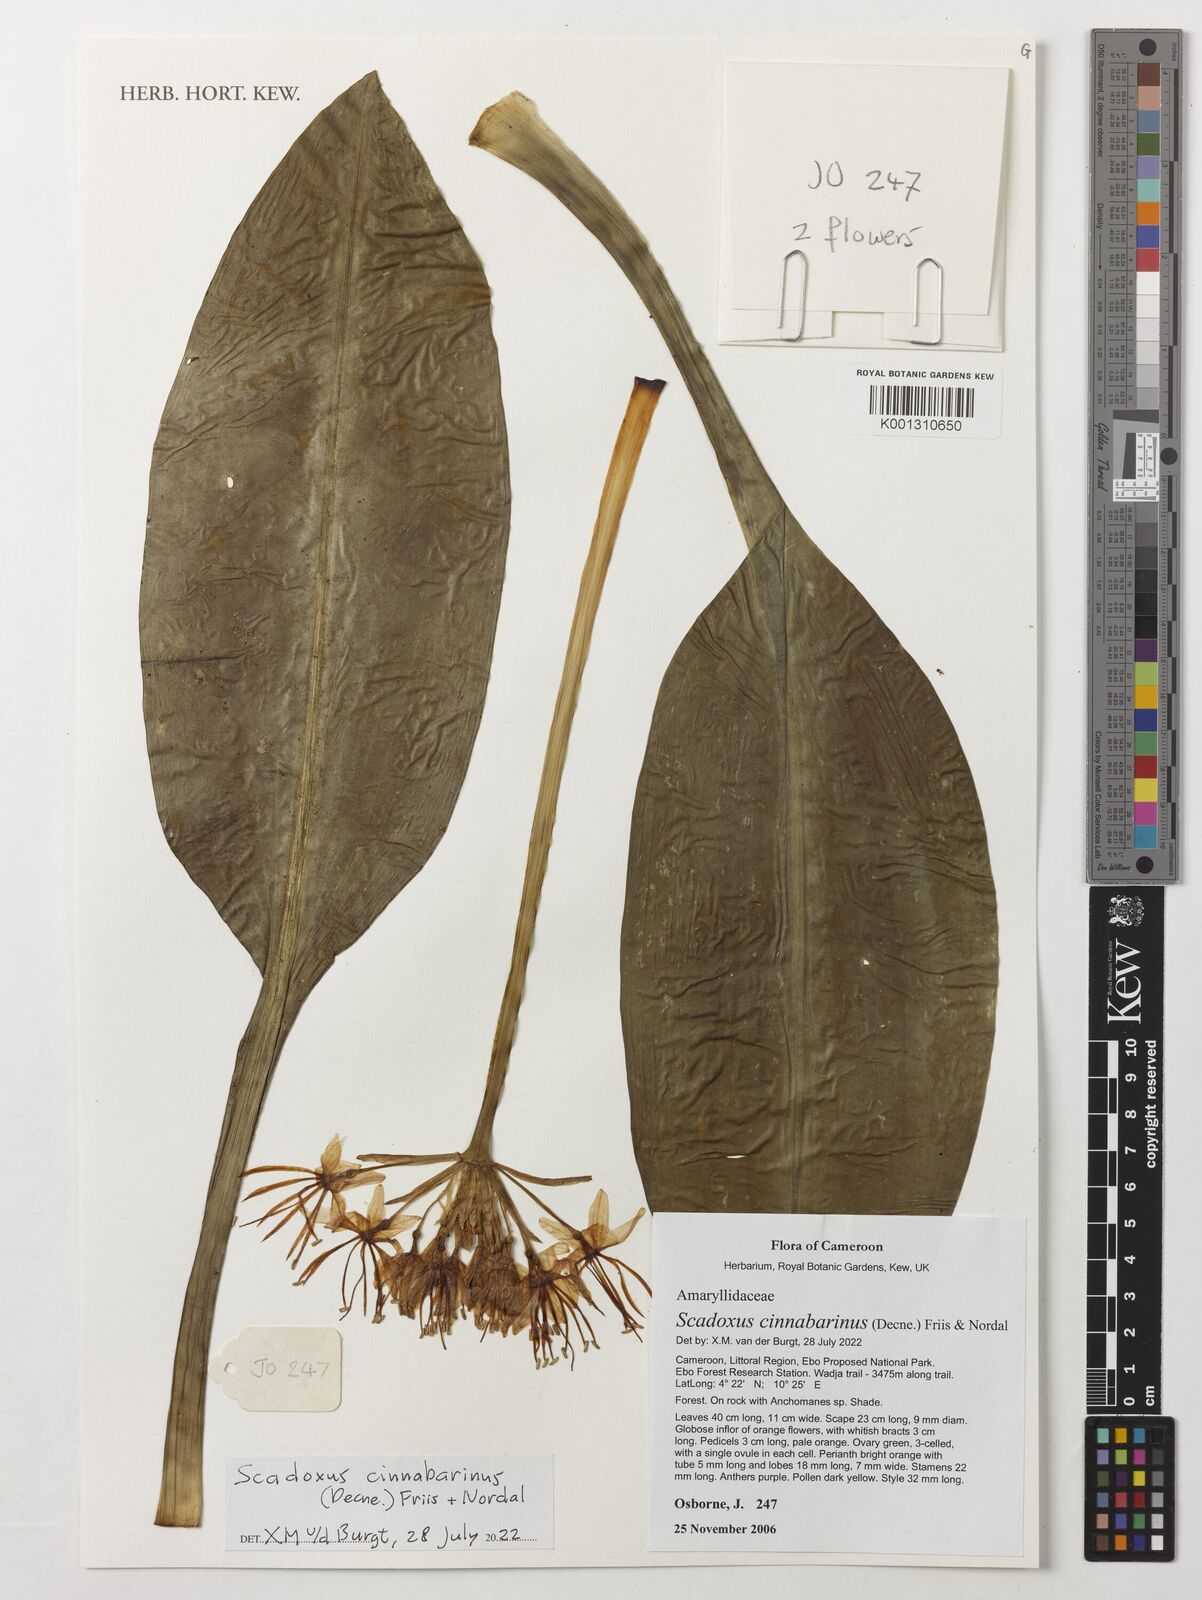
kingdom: Plantae
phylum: Tracheophyta
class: Liliopsida
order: Asparagales
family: Amaryllidaceae
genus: Scadoxus
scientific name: Scadoxus cinnabarinus
